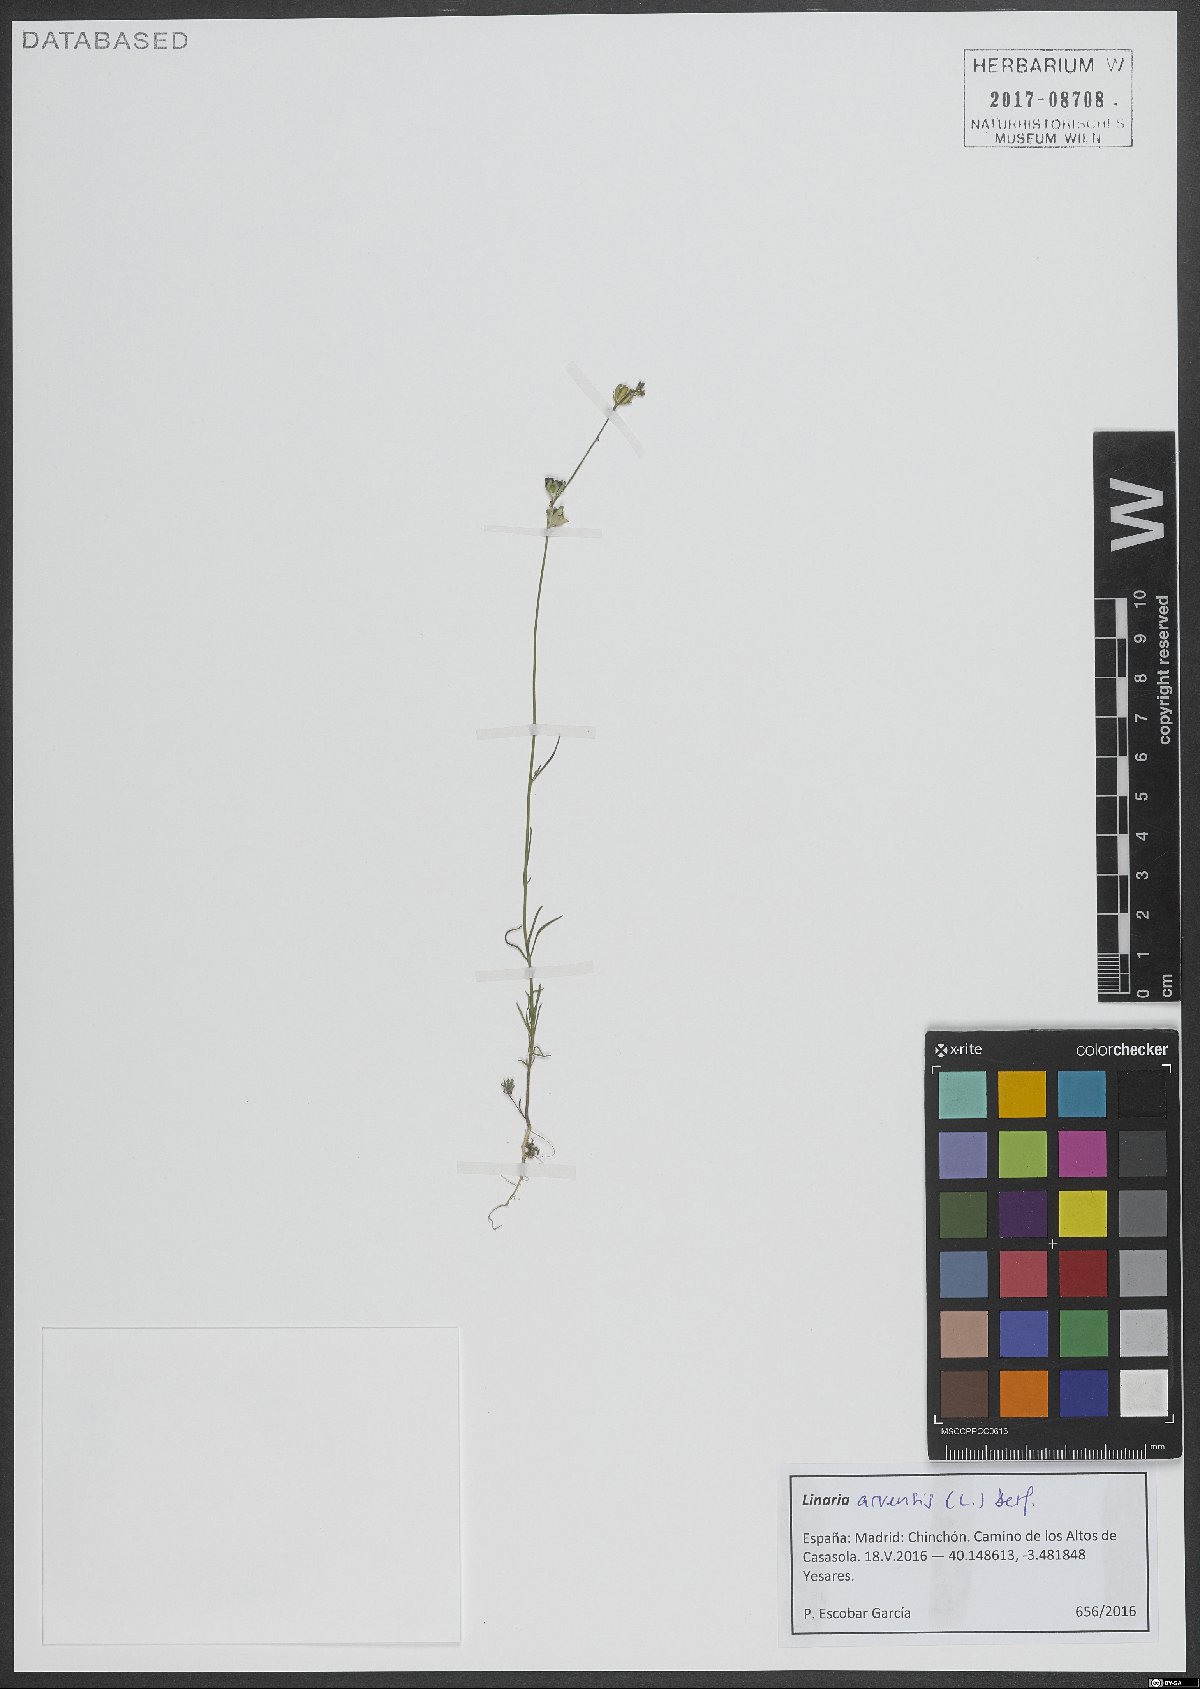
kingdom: Plantae
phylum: Tracheophyta
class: Magnoliopsida
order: Lamiales
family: Plantaginaceae
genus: Linaria
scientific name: Linaria arvensis
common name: Corn toadflax
